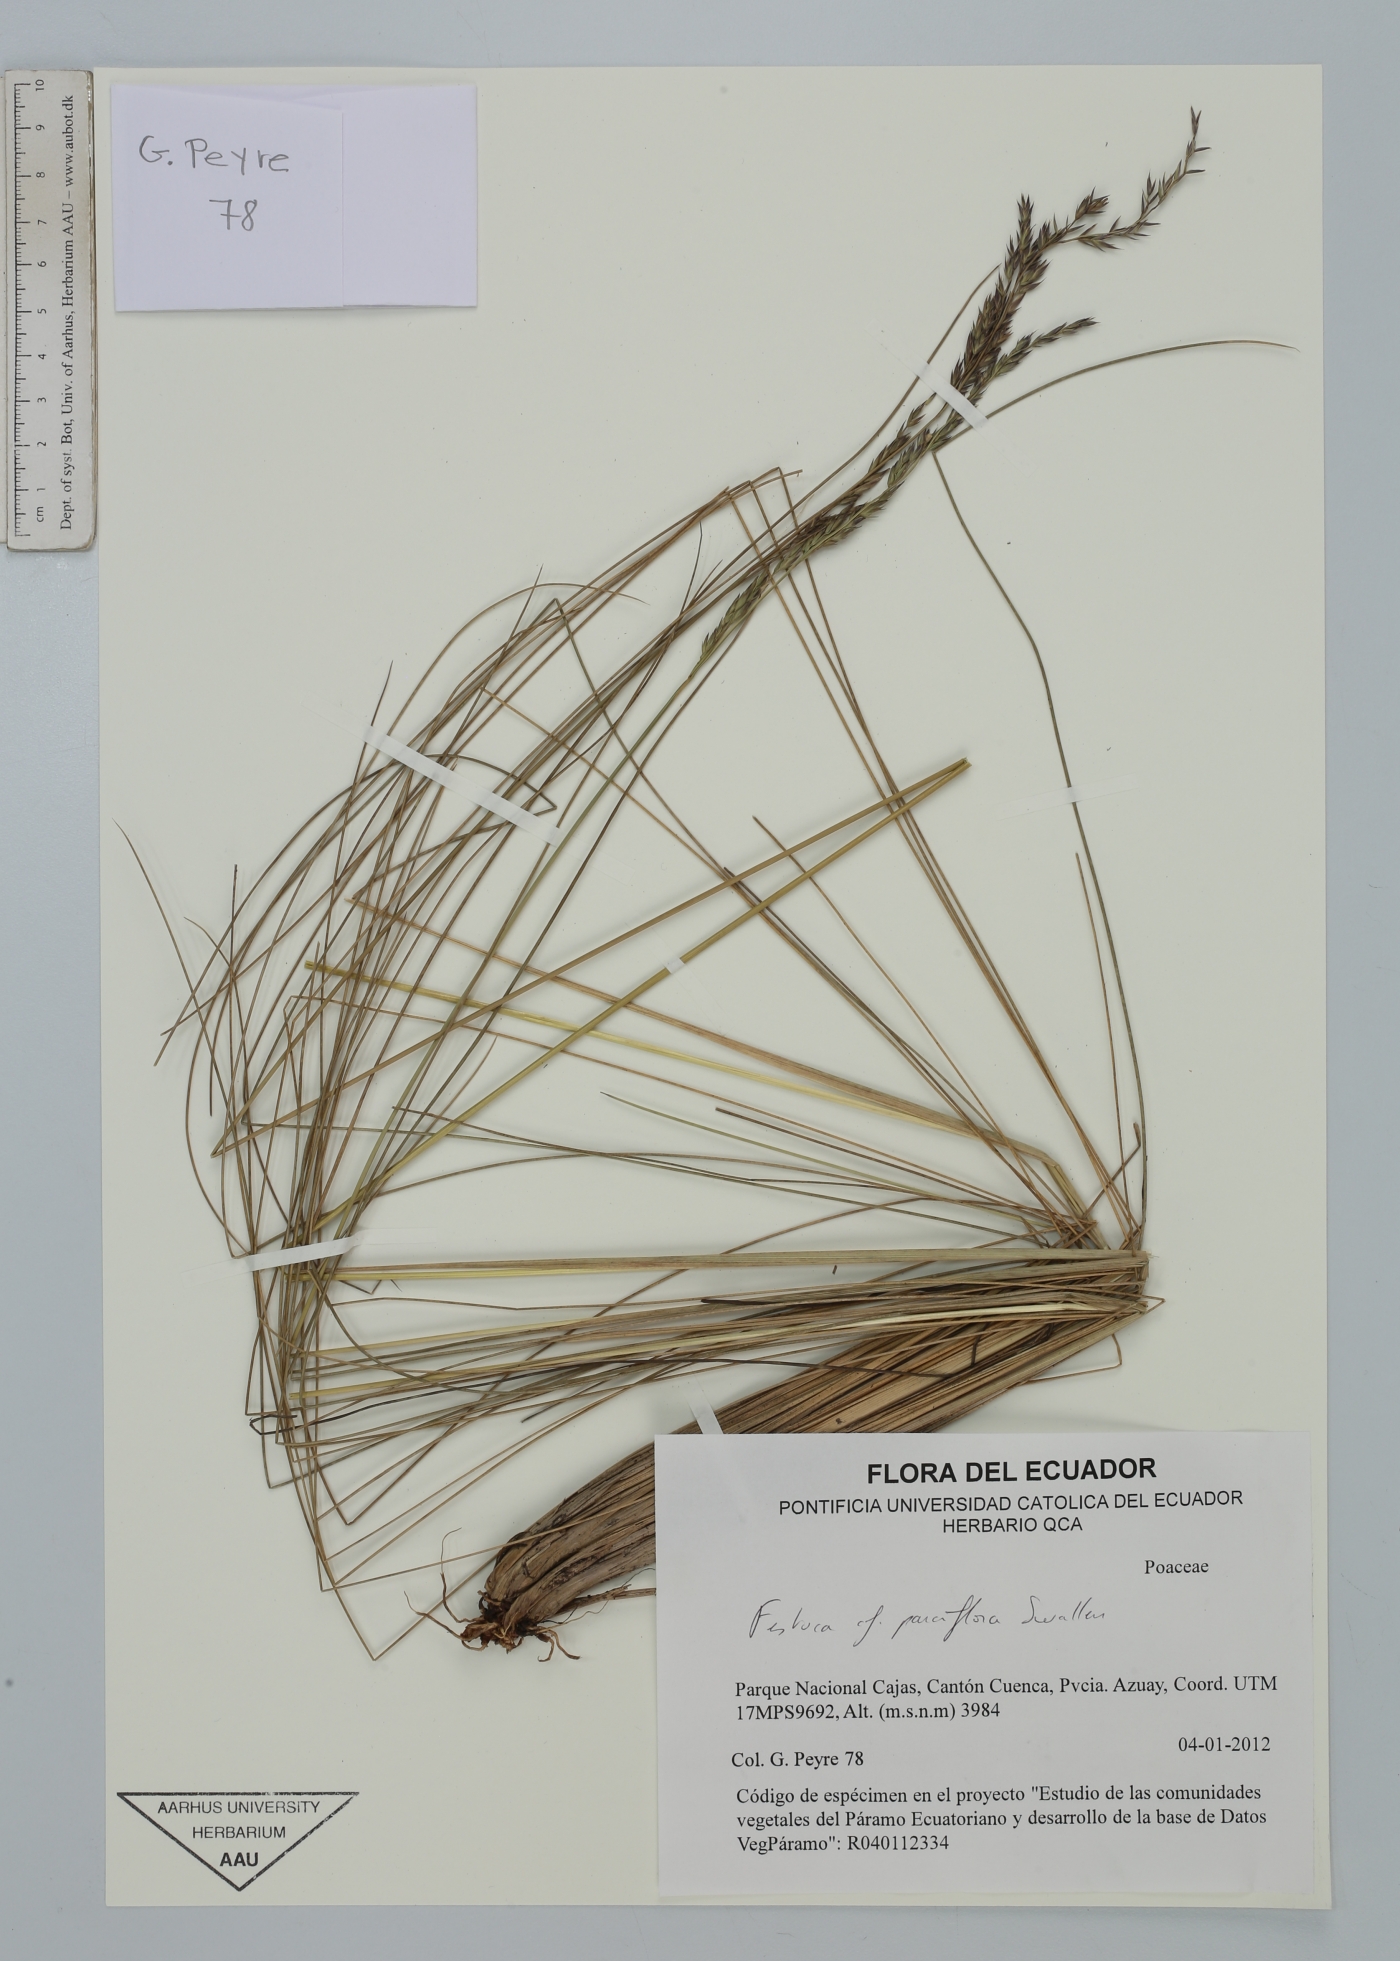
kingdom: Plantae
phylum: Tracheophyta
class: Liliopsida
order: Poales
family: Poaceae
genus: Festuca
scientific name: Festuca parciflora
